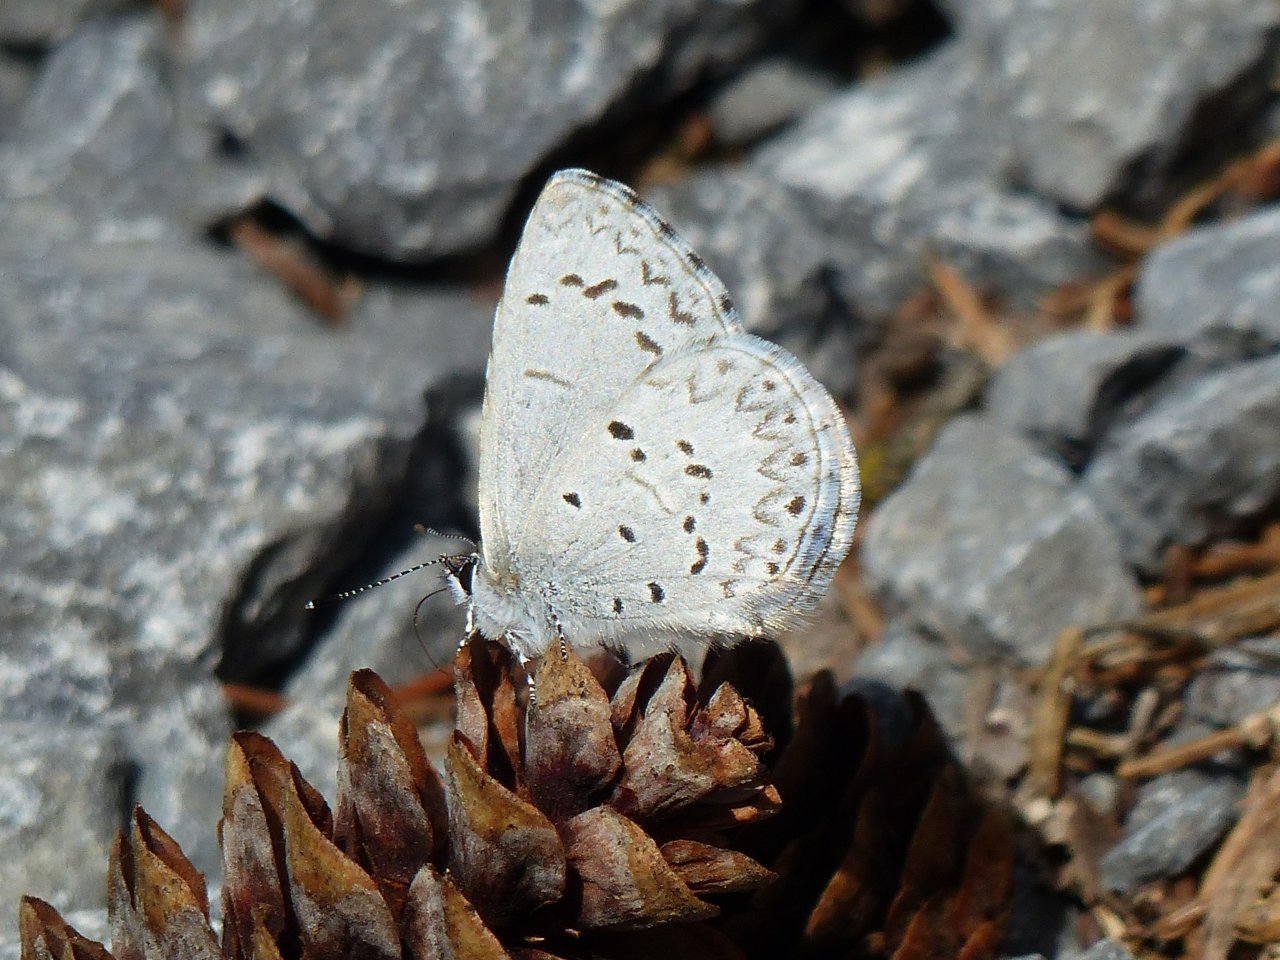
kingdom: Animalia
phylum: Arthropoda
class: Insecta
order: Lepidoptera
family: Lycaenidae
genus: Celastrina
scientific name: Celastrina lucia
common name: Northern Spring Azure
